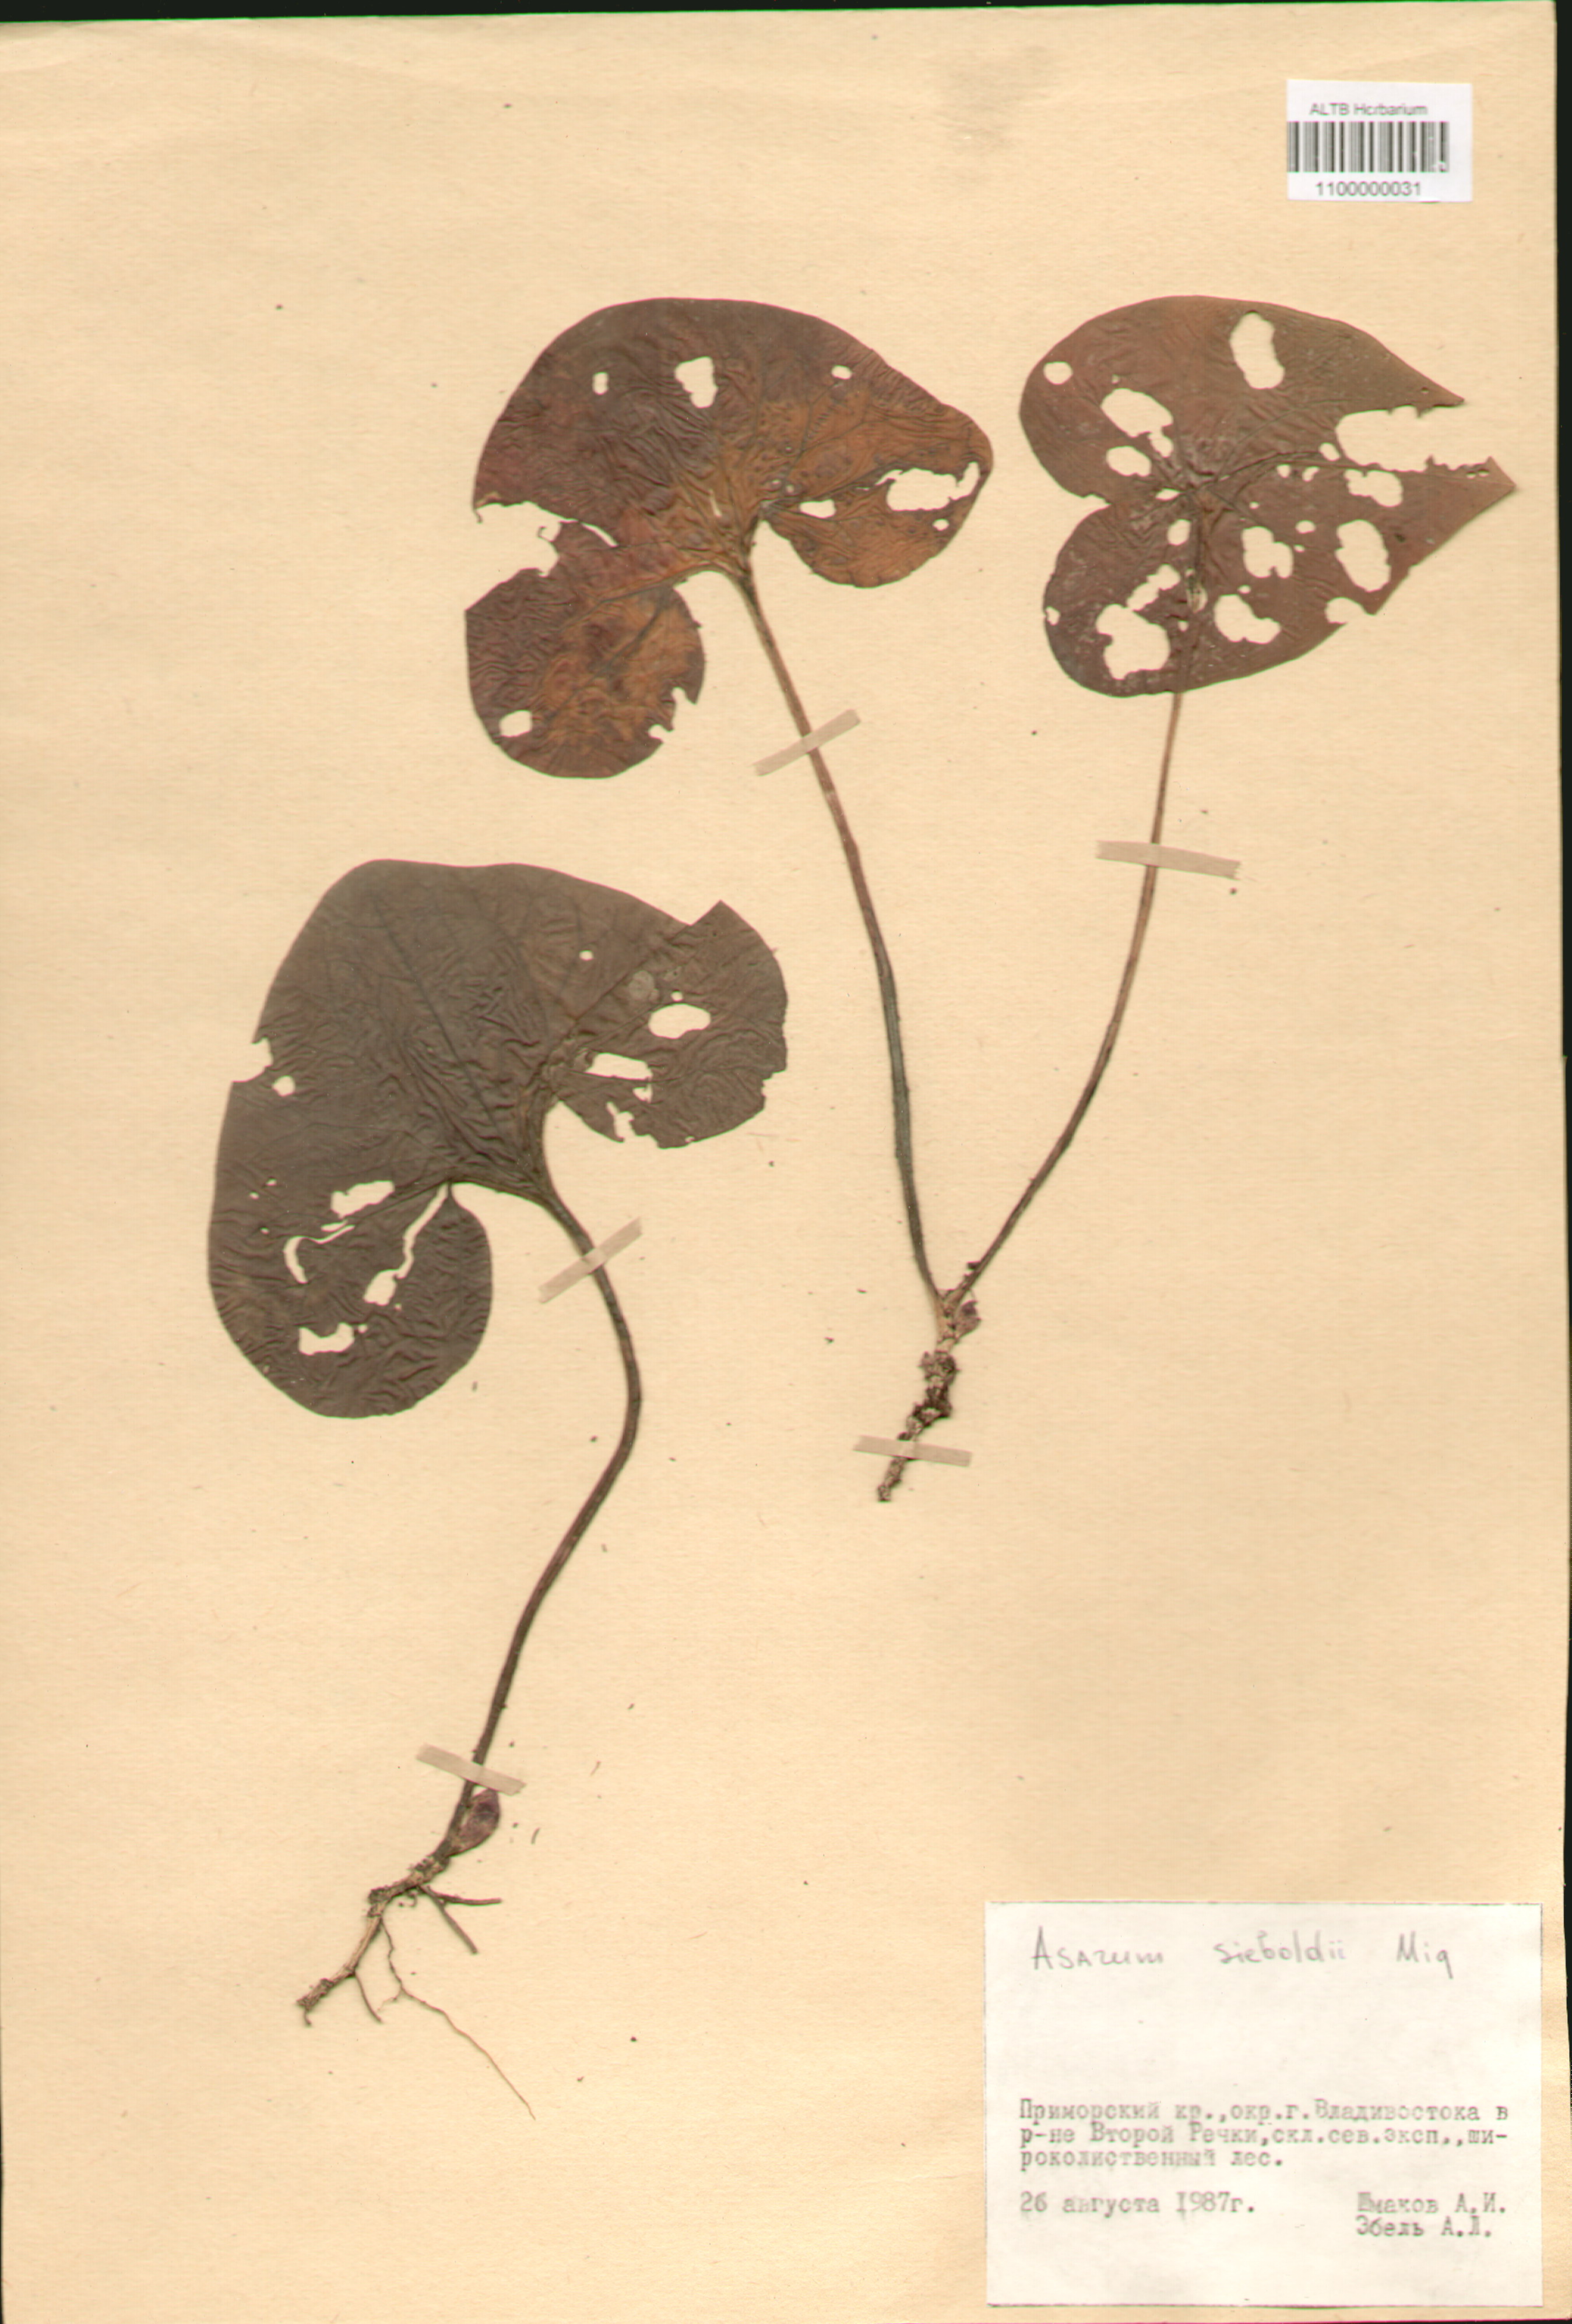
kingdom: Plantae
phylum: Tracheophyta
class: Magnoliopsida
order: Piperales
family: Aristolochiaceae
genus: Asarum
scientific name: Asarum sieboldii
